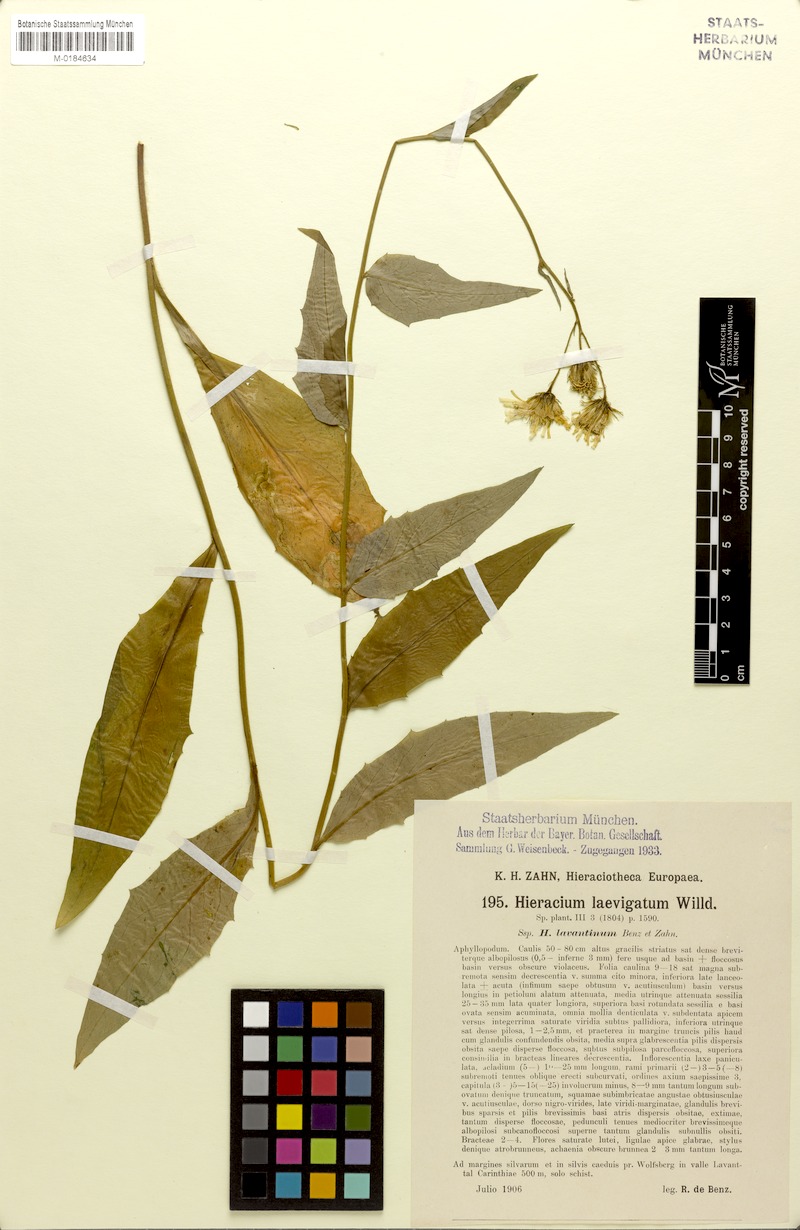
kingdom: Plantae
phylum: Tracheophyta
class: Magnoliopsida
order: Asterales
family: Asteraceae
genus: Hieracium
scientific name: Hieracium flagelliferum
